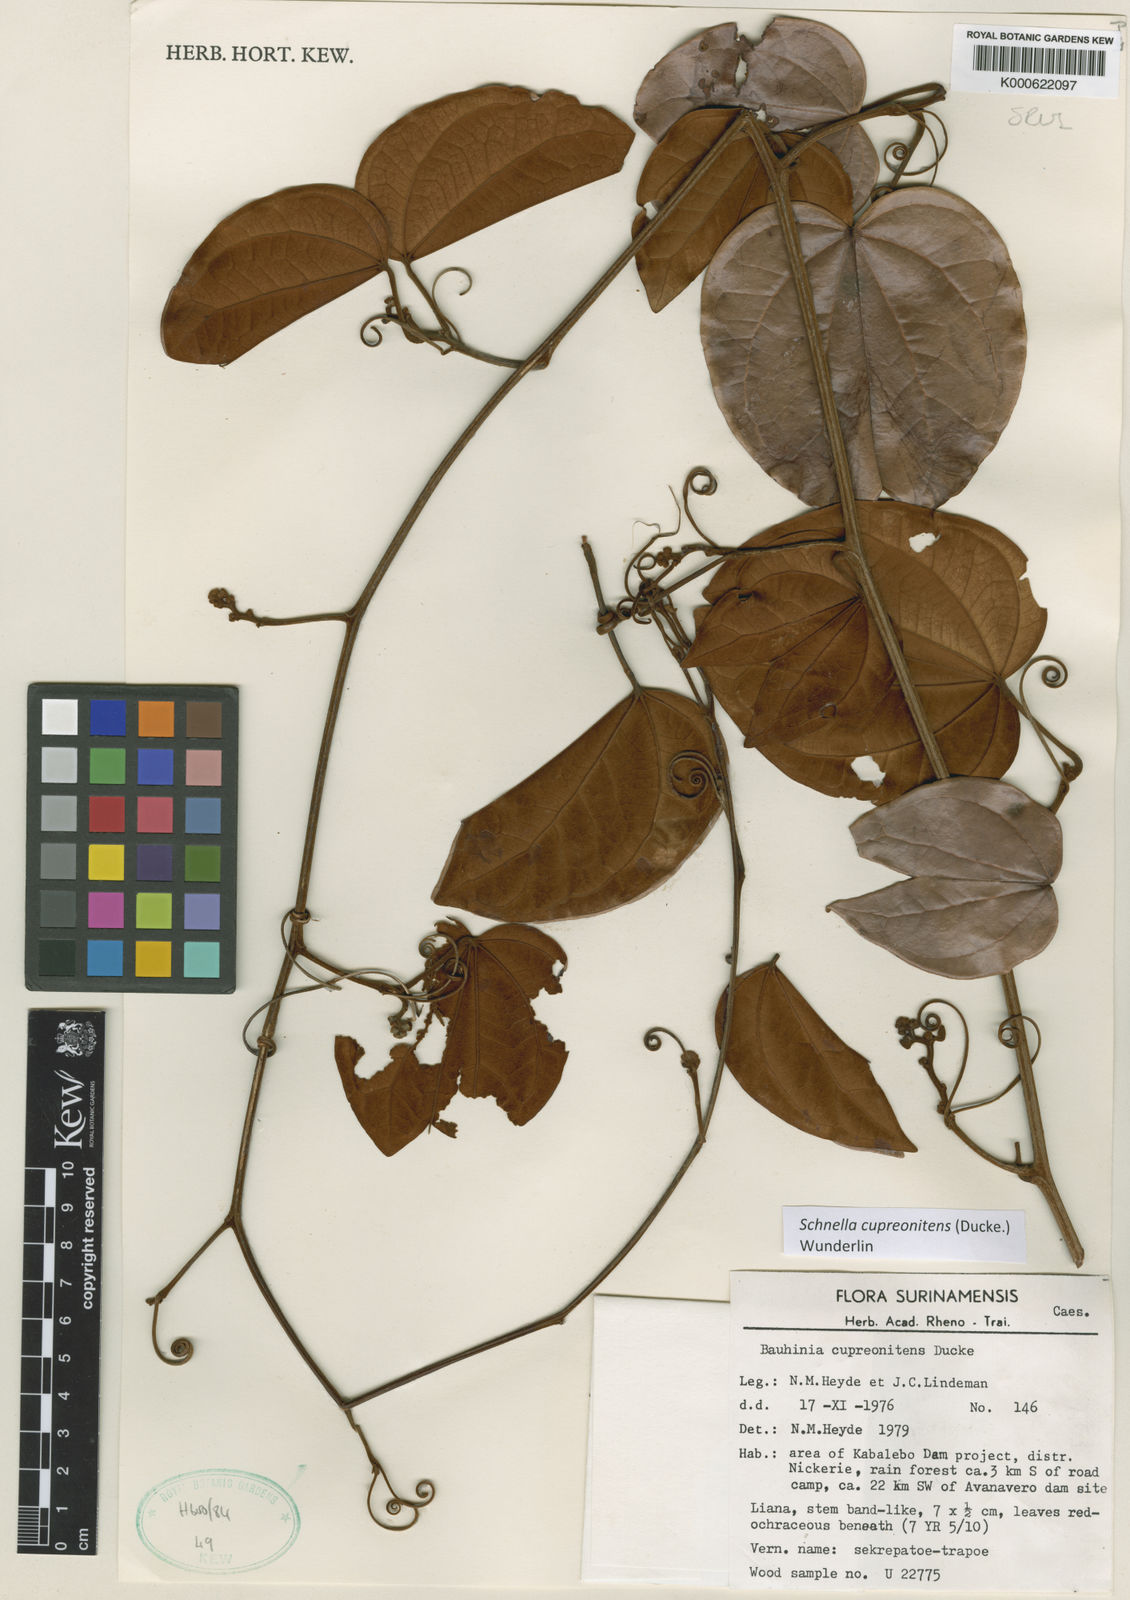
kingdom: Plantae
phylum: Tracheophyta
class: Magnoliopsida
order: Fabales
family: Fabaceae
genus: Schnella
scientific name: Schnella cupreonitens
